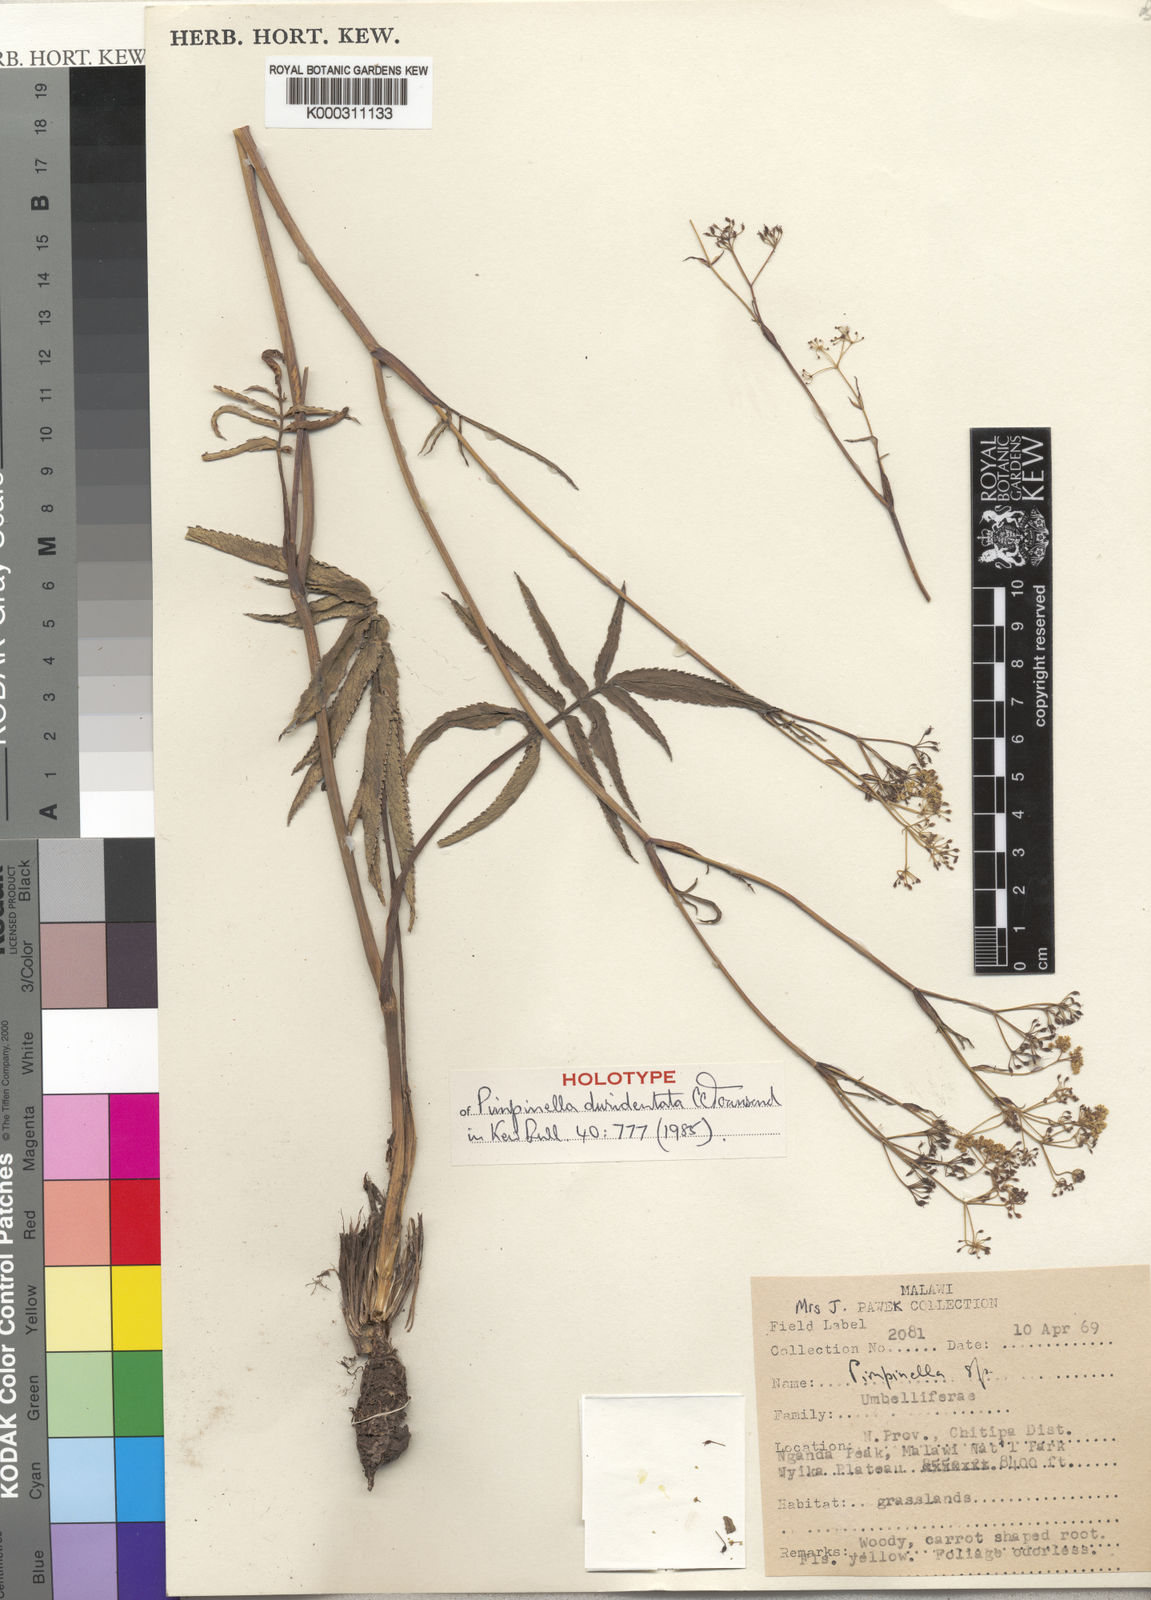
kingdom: Plantae
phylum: Tracheophyta
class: Magnoliopsida
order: Apiales
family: Apiaceae
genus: Pimpinella
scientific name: Pimpinella favifolia
